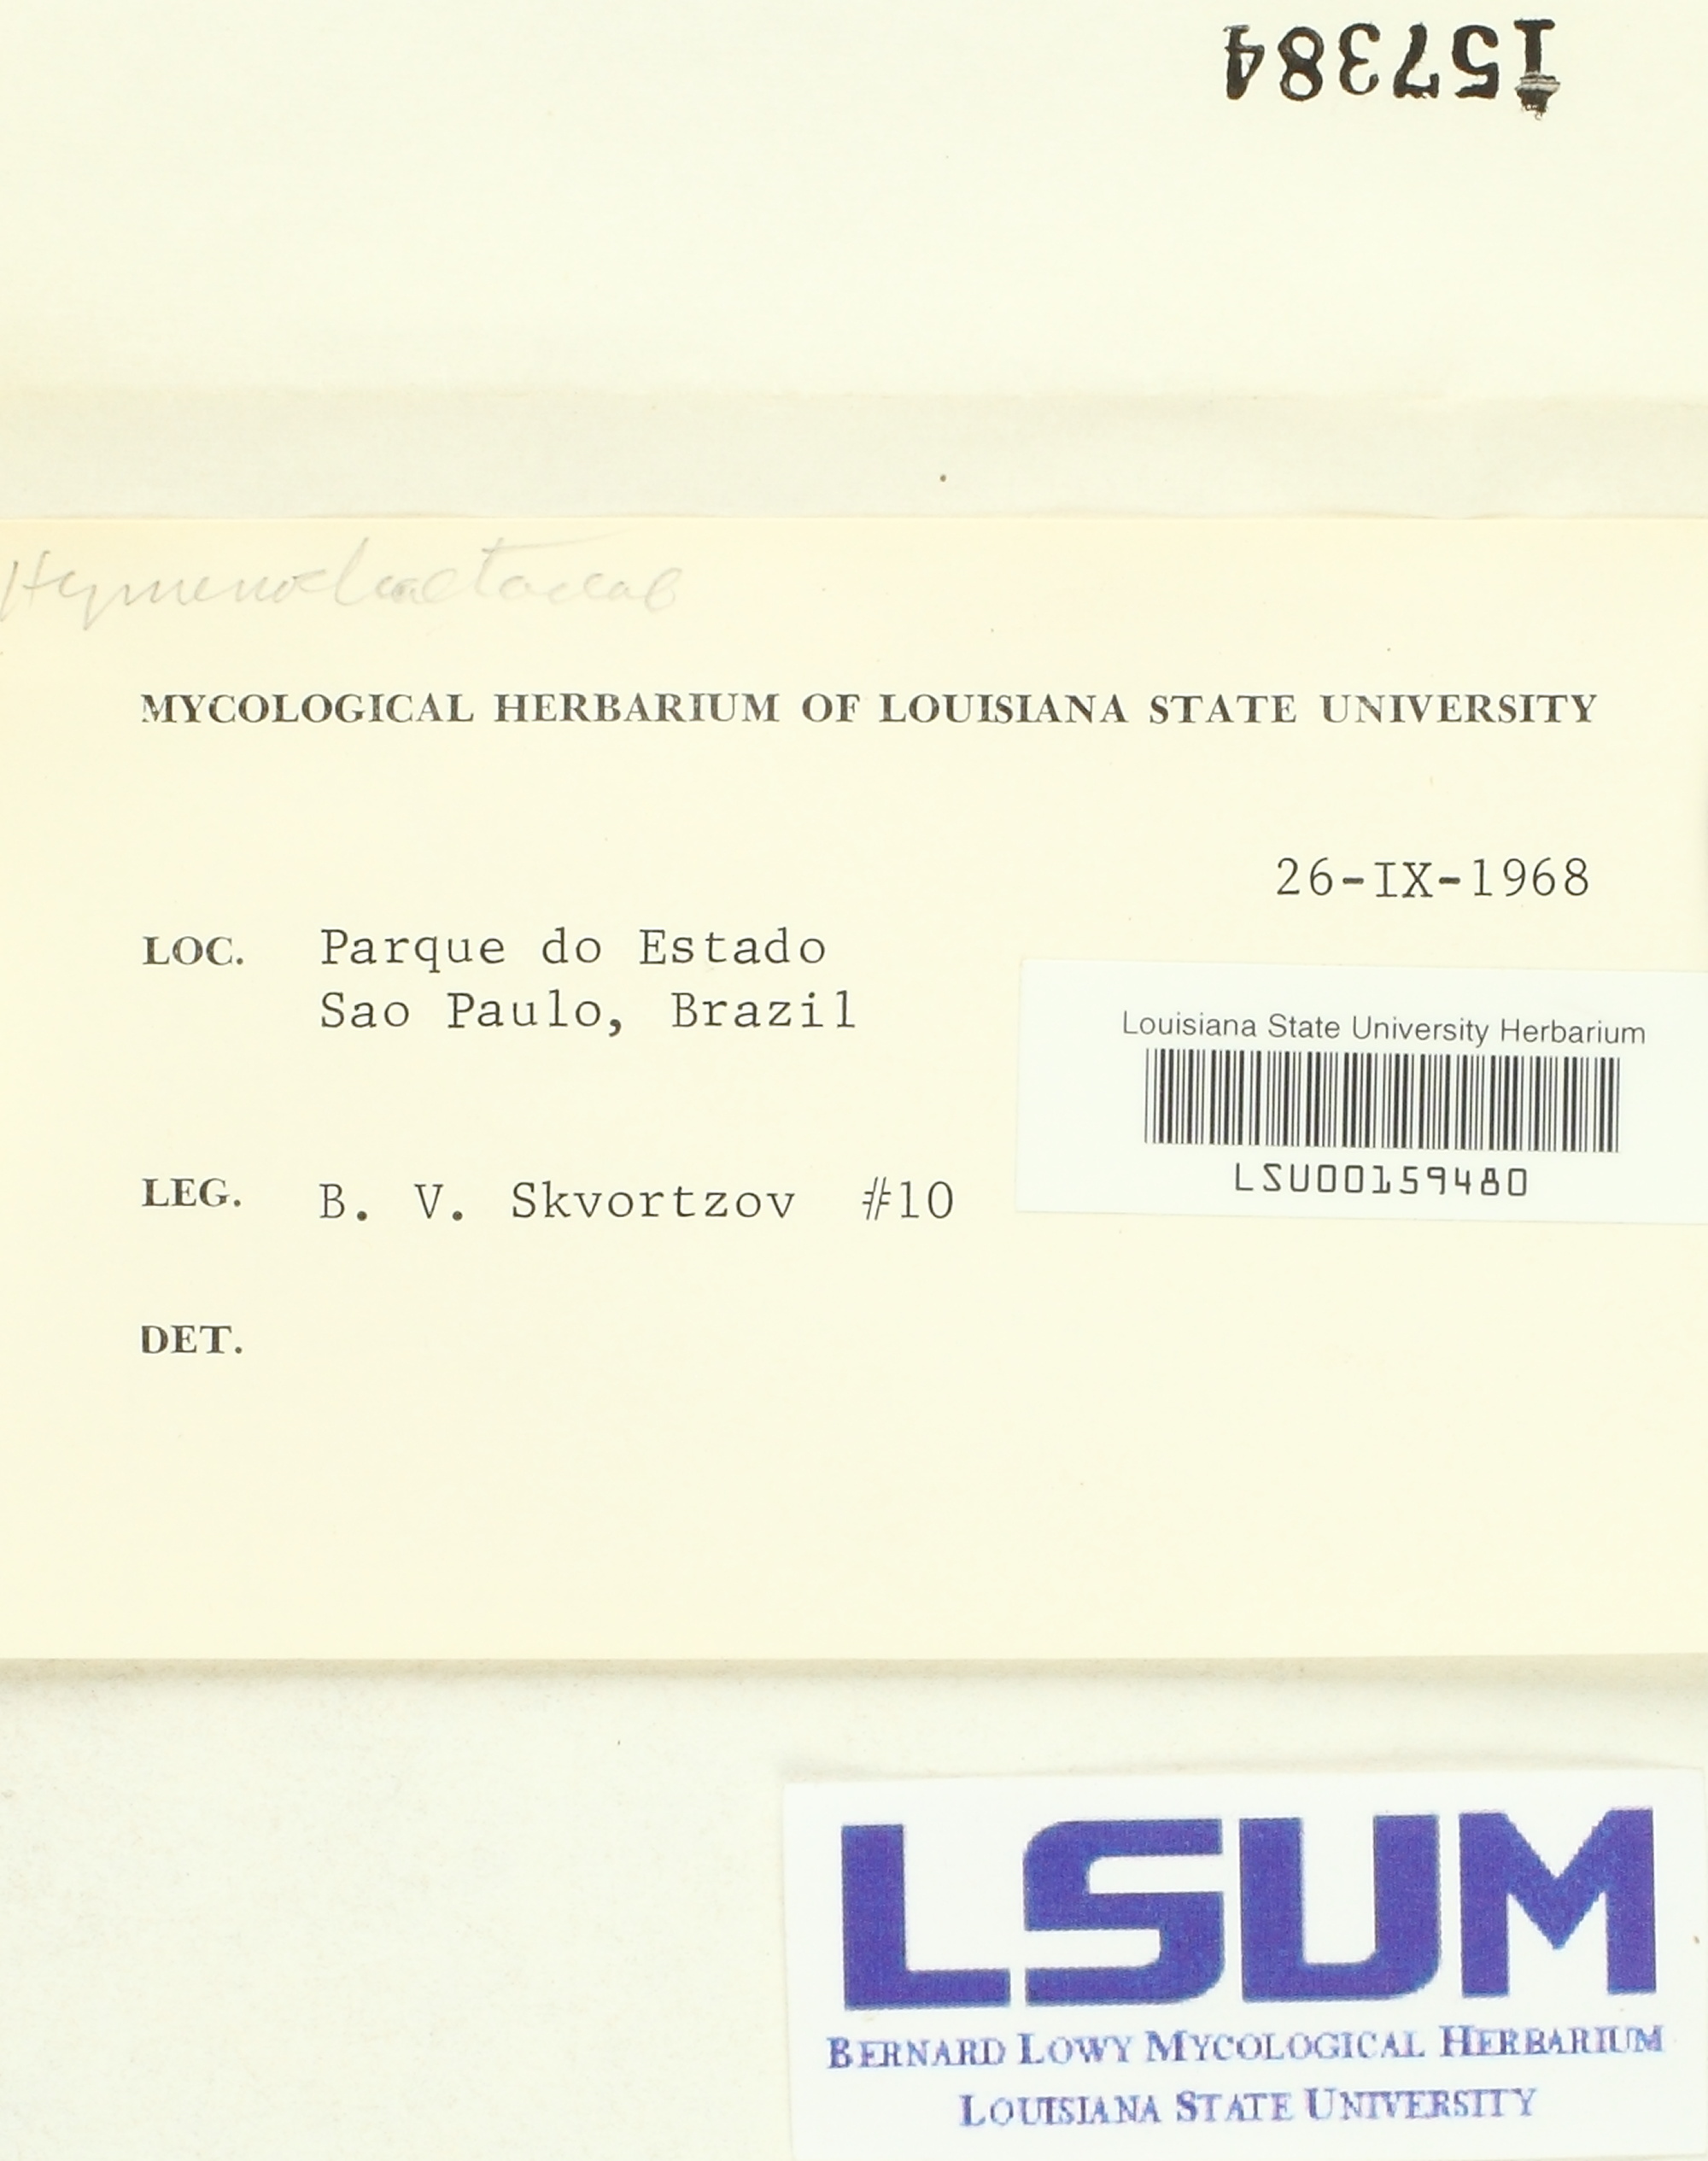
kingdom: Fungi
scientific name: Fungi
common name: Fungi
